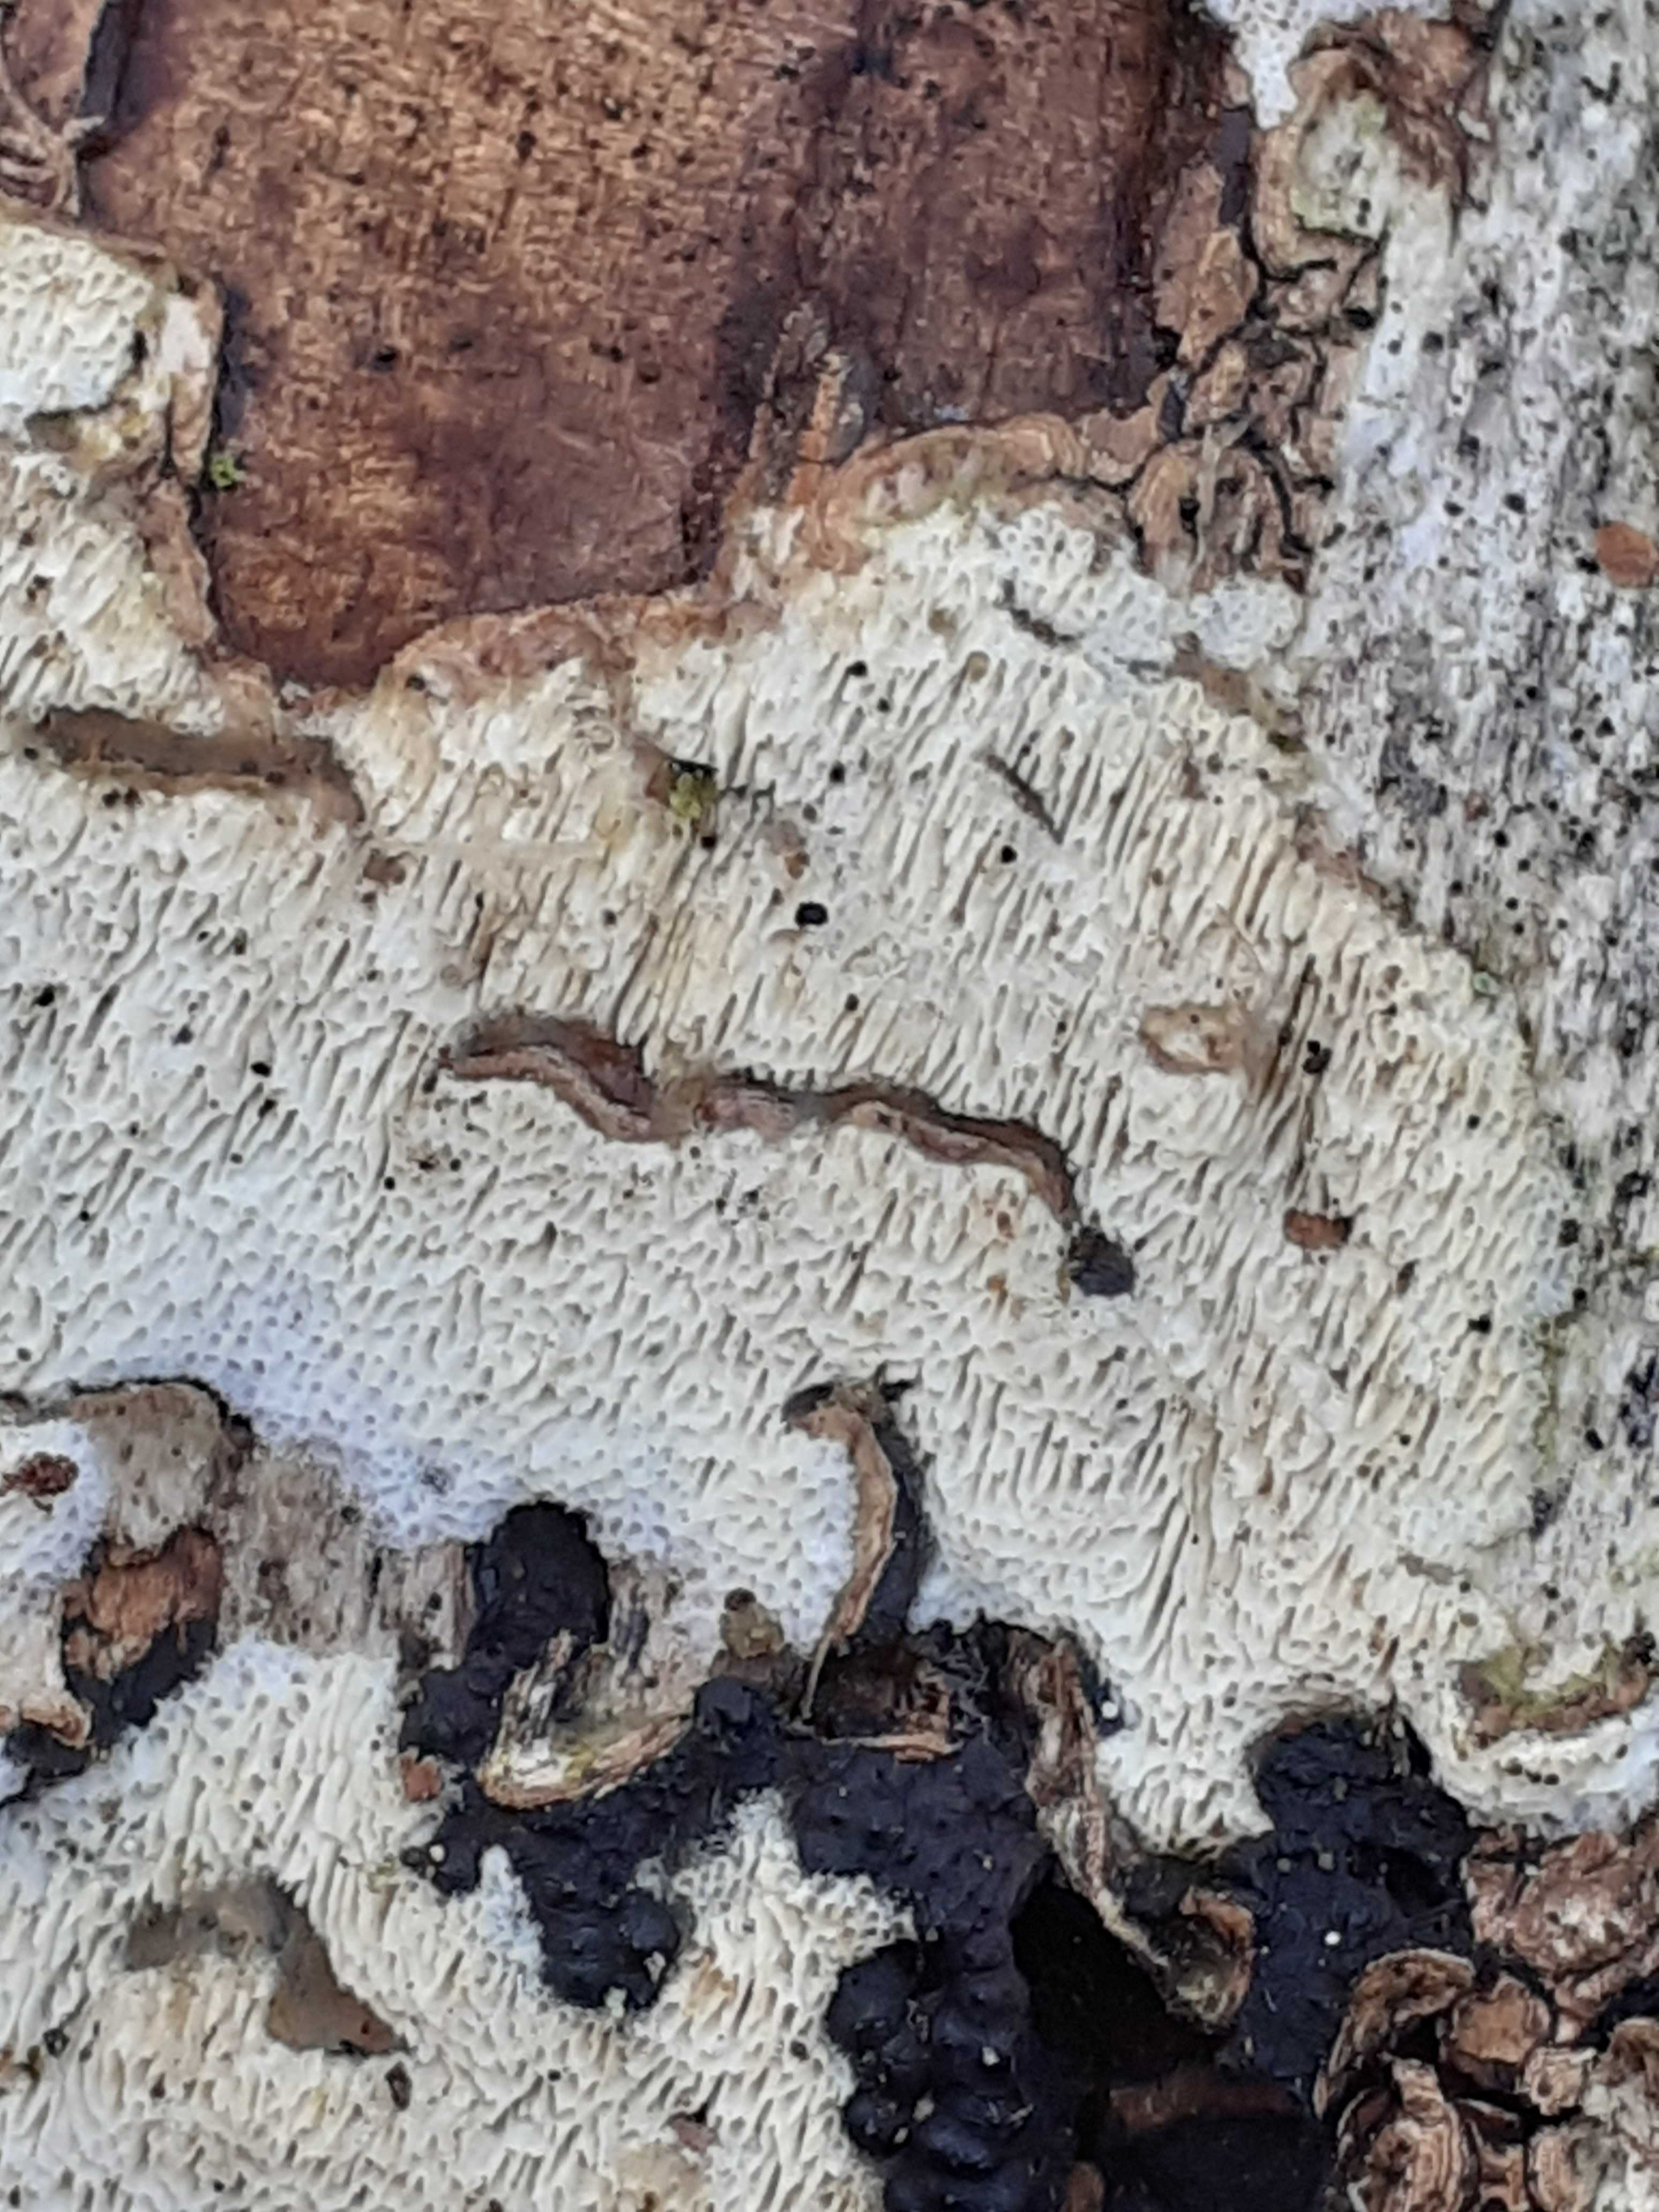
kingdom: Fungi
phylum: Basidiomycota
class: Agaricomycetes
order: Hymenochaetales
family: Schizoporaceae
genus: Schizopora
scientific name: Schizopora paradoxa
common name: hvid tandsvamp
